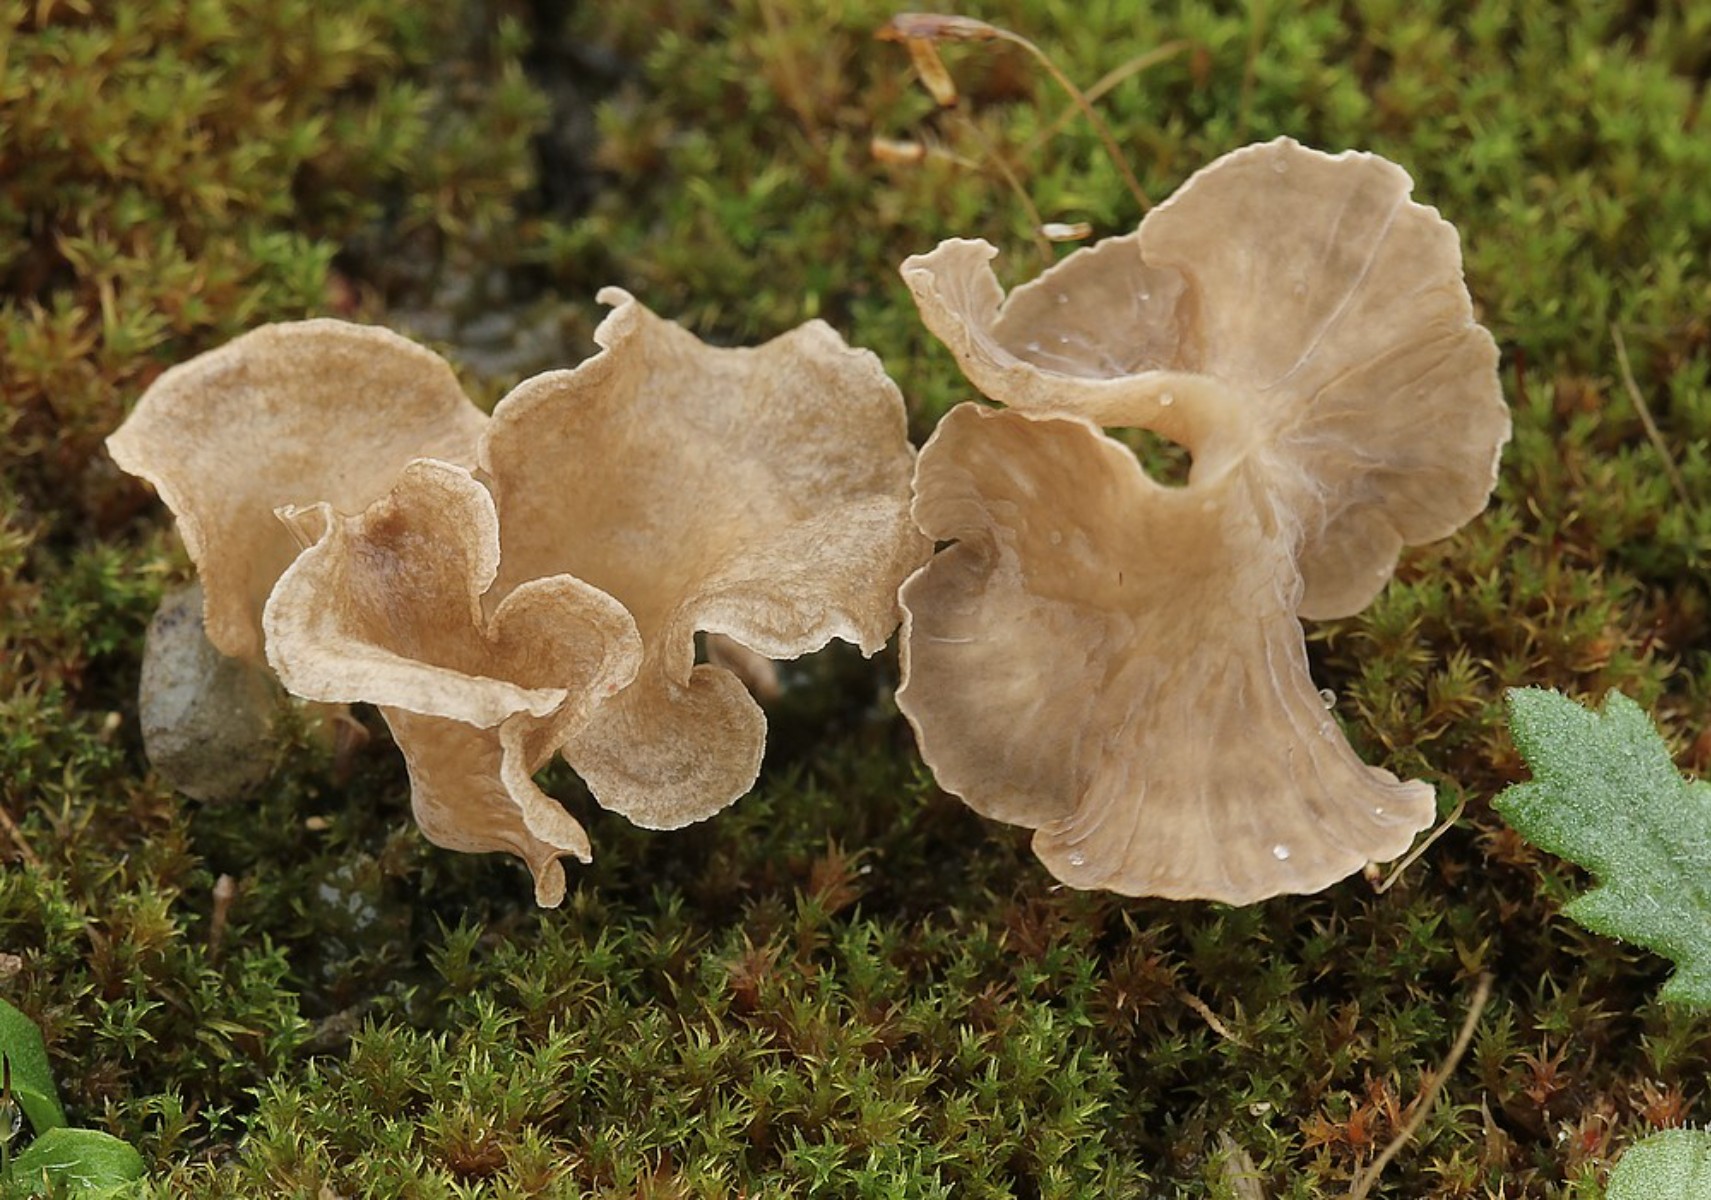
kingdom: Fungi
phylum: Basidiomycota
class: Agaricomycetes
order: Agaricales
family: Hygrophoraceae
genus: Arrhenia
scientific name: Arrhenia spathulata
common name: skæv fontænehat
